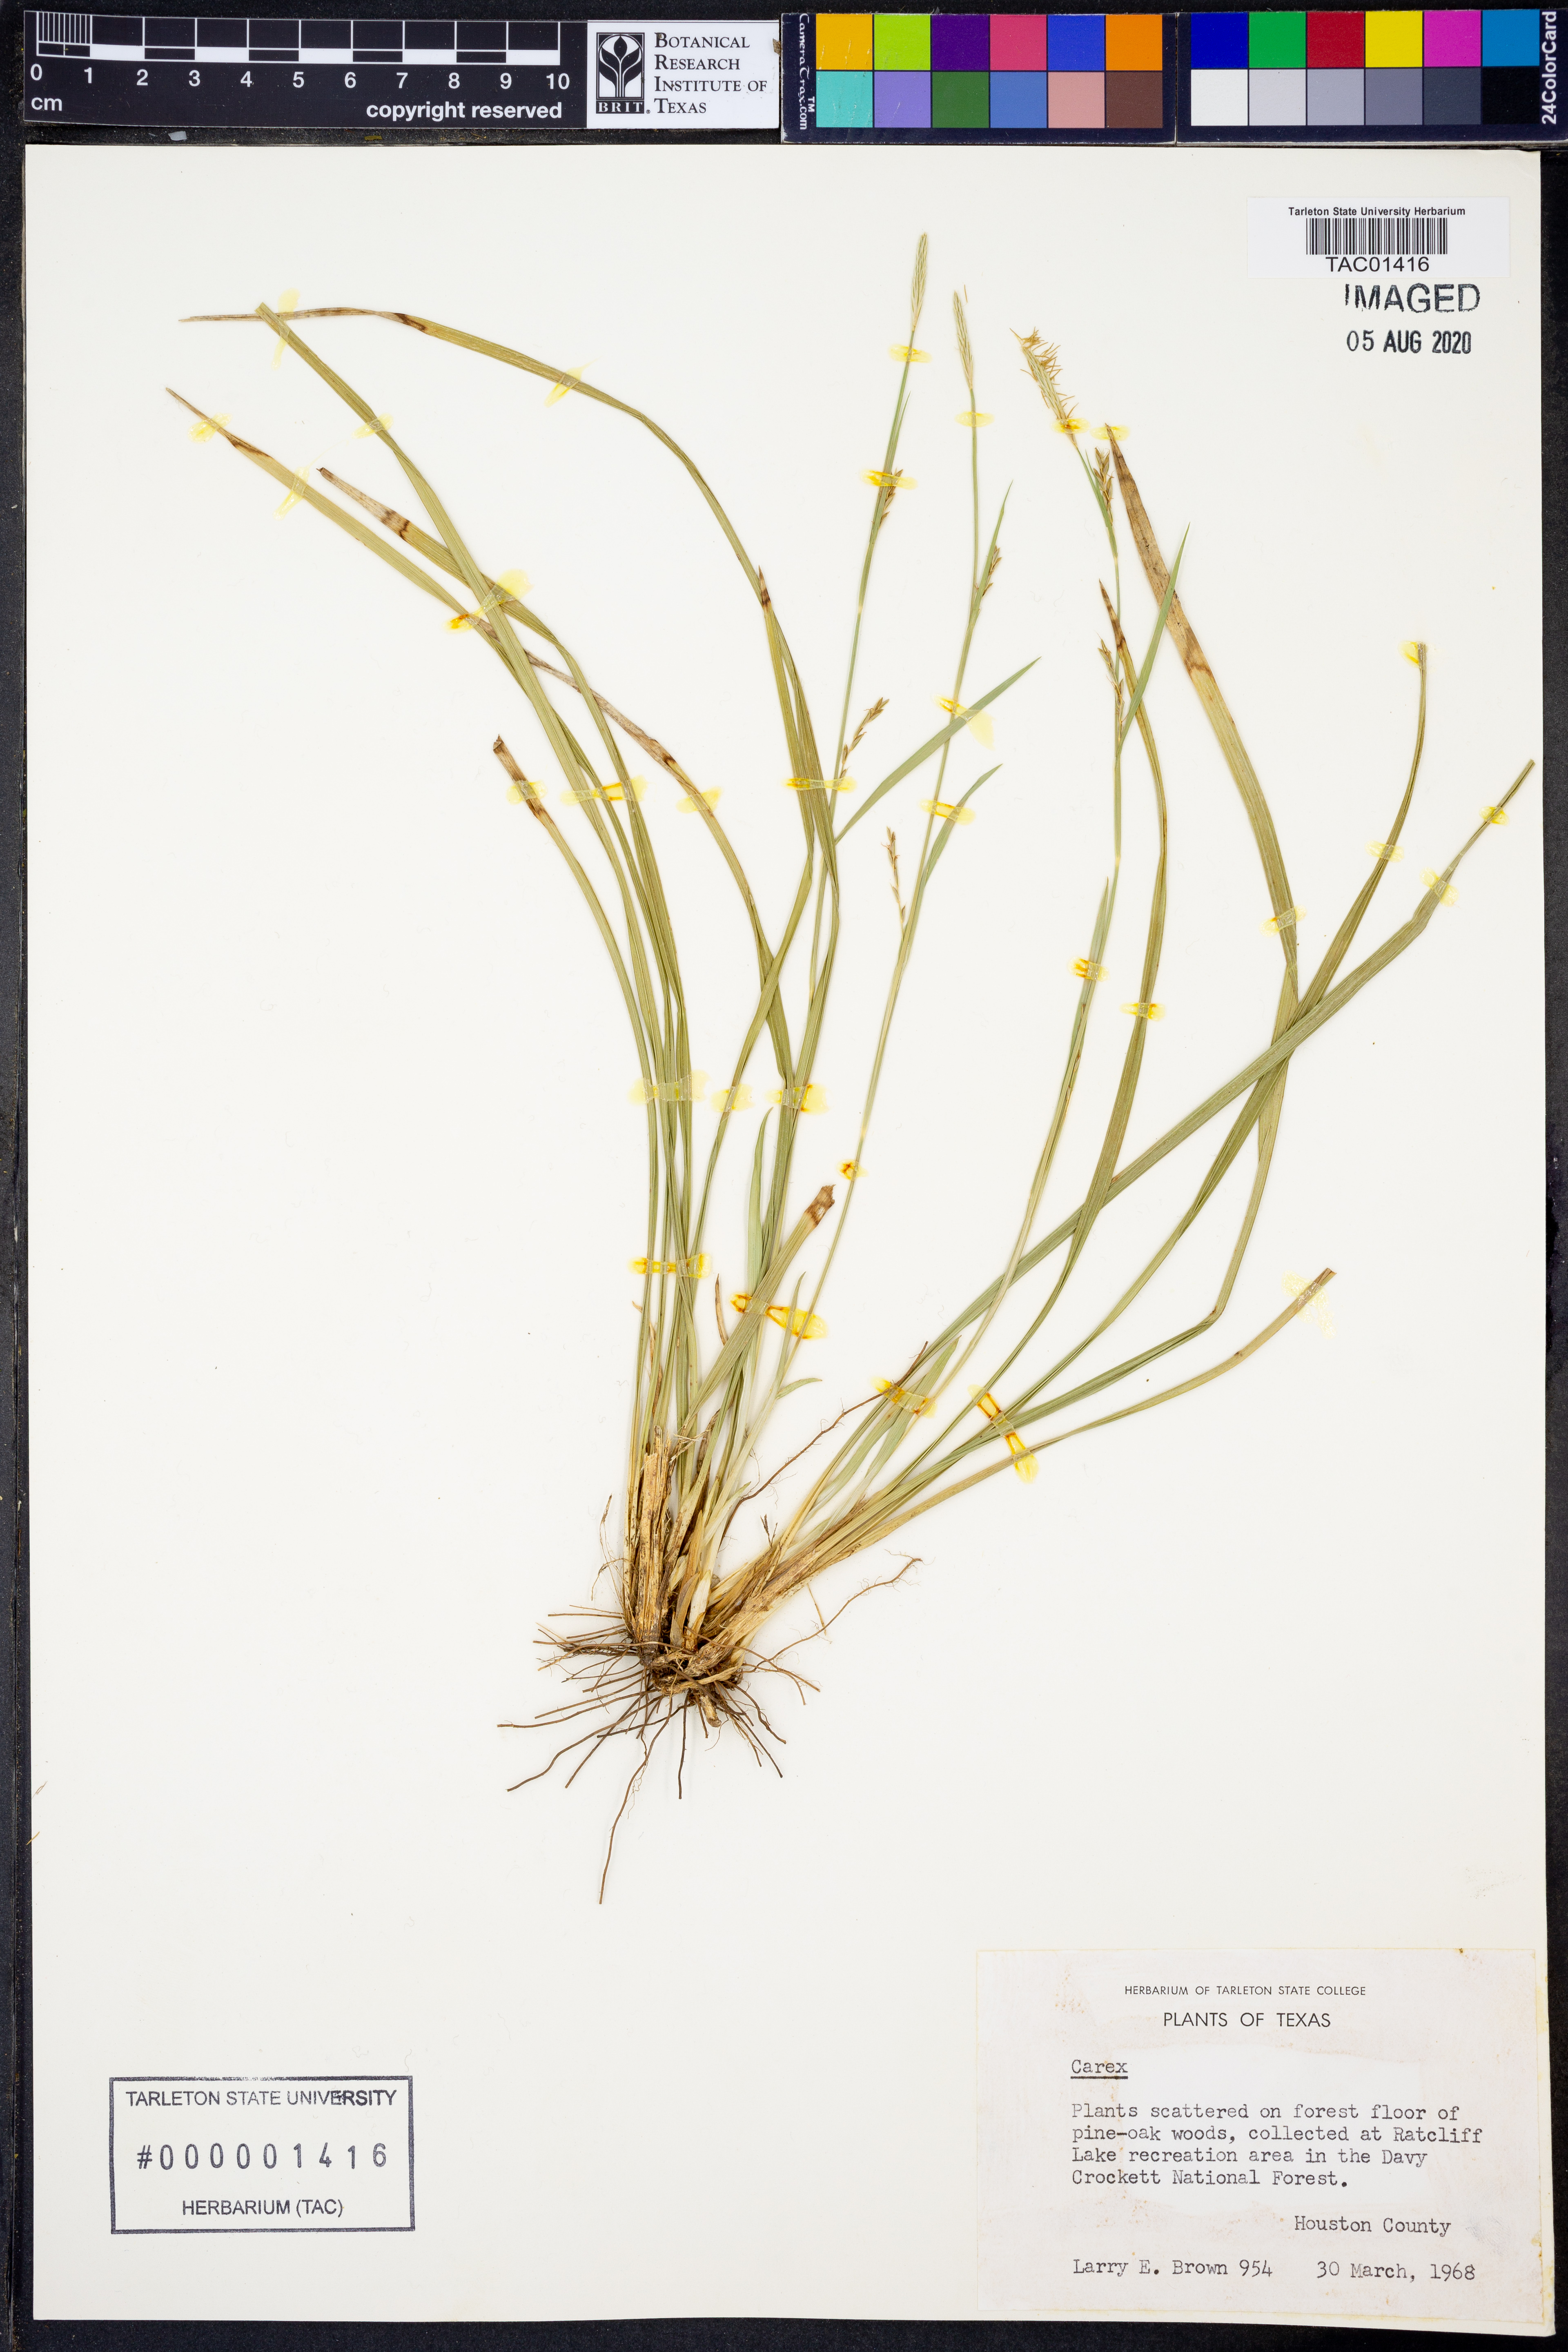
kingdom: Plantae
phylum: Tracheophyta
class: Liliopsida
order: Poales
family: Cyperaceae
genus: Carex
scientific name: Carex
